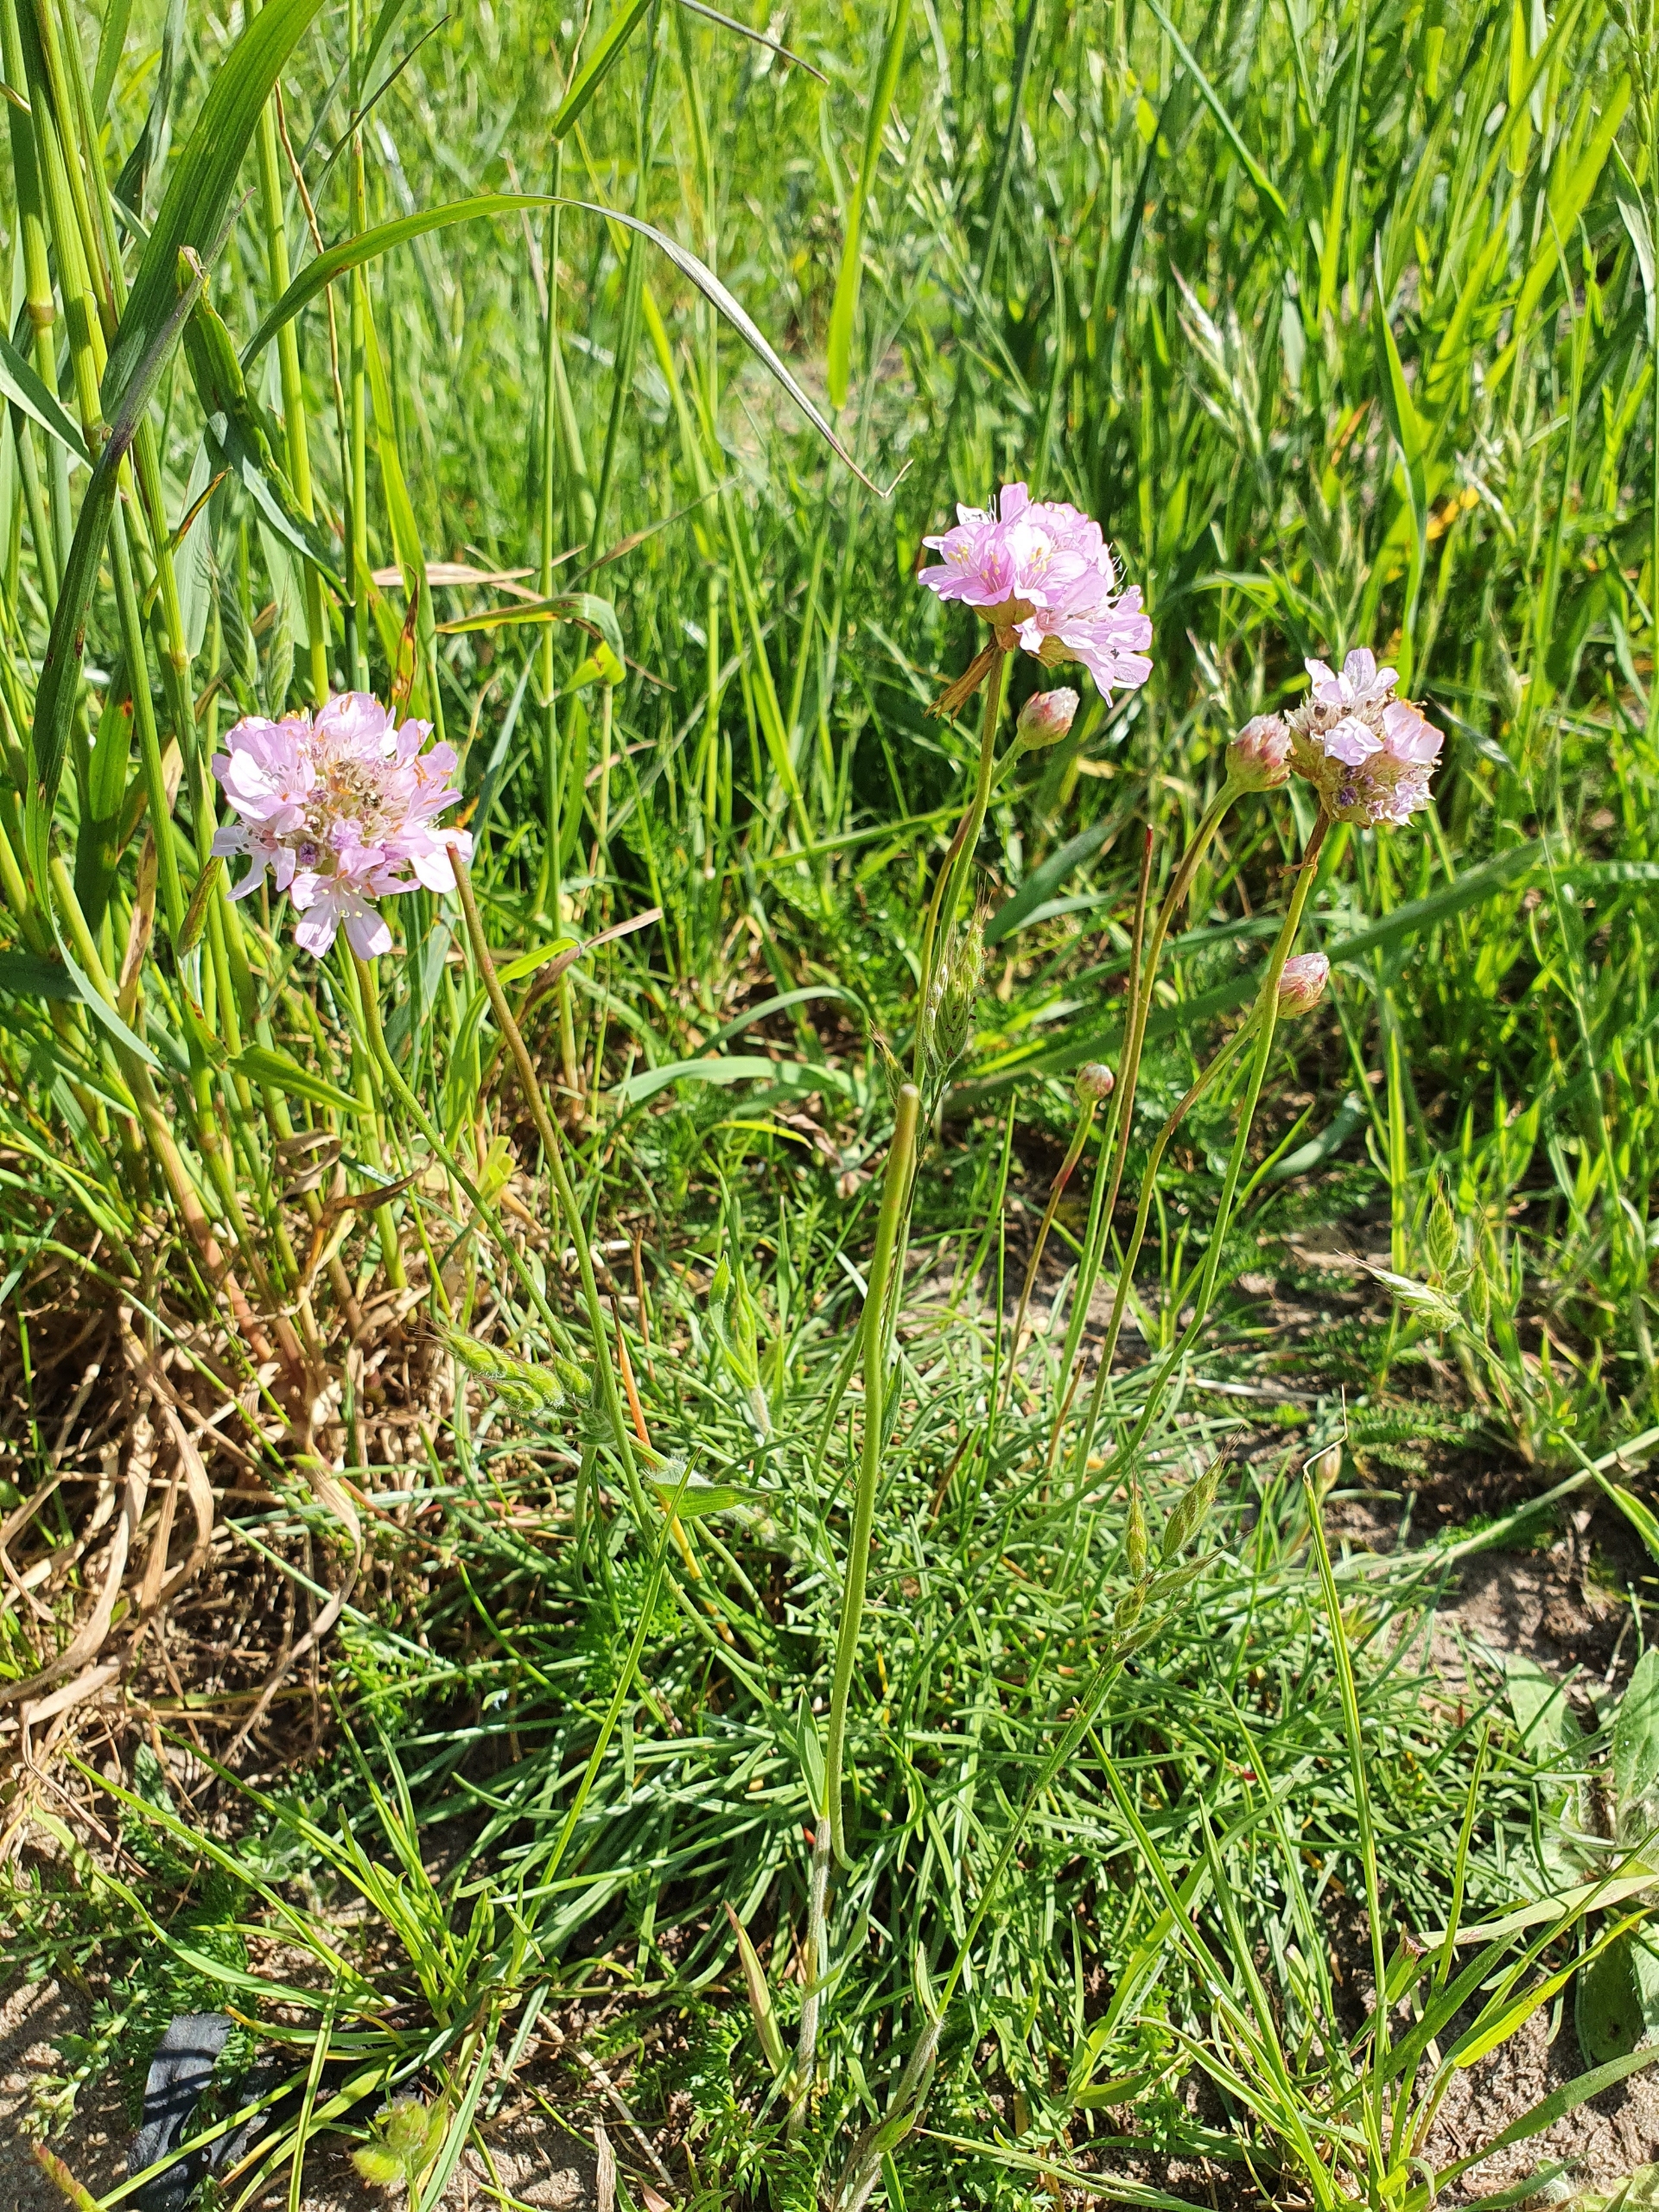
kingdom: Plantae
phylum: Tracheophyta
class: Magnoliopsida
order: Caryophyllales
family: Plumbaginaceae
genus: Armeria
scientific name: Armeria maritima
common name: Engelskgræs
